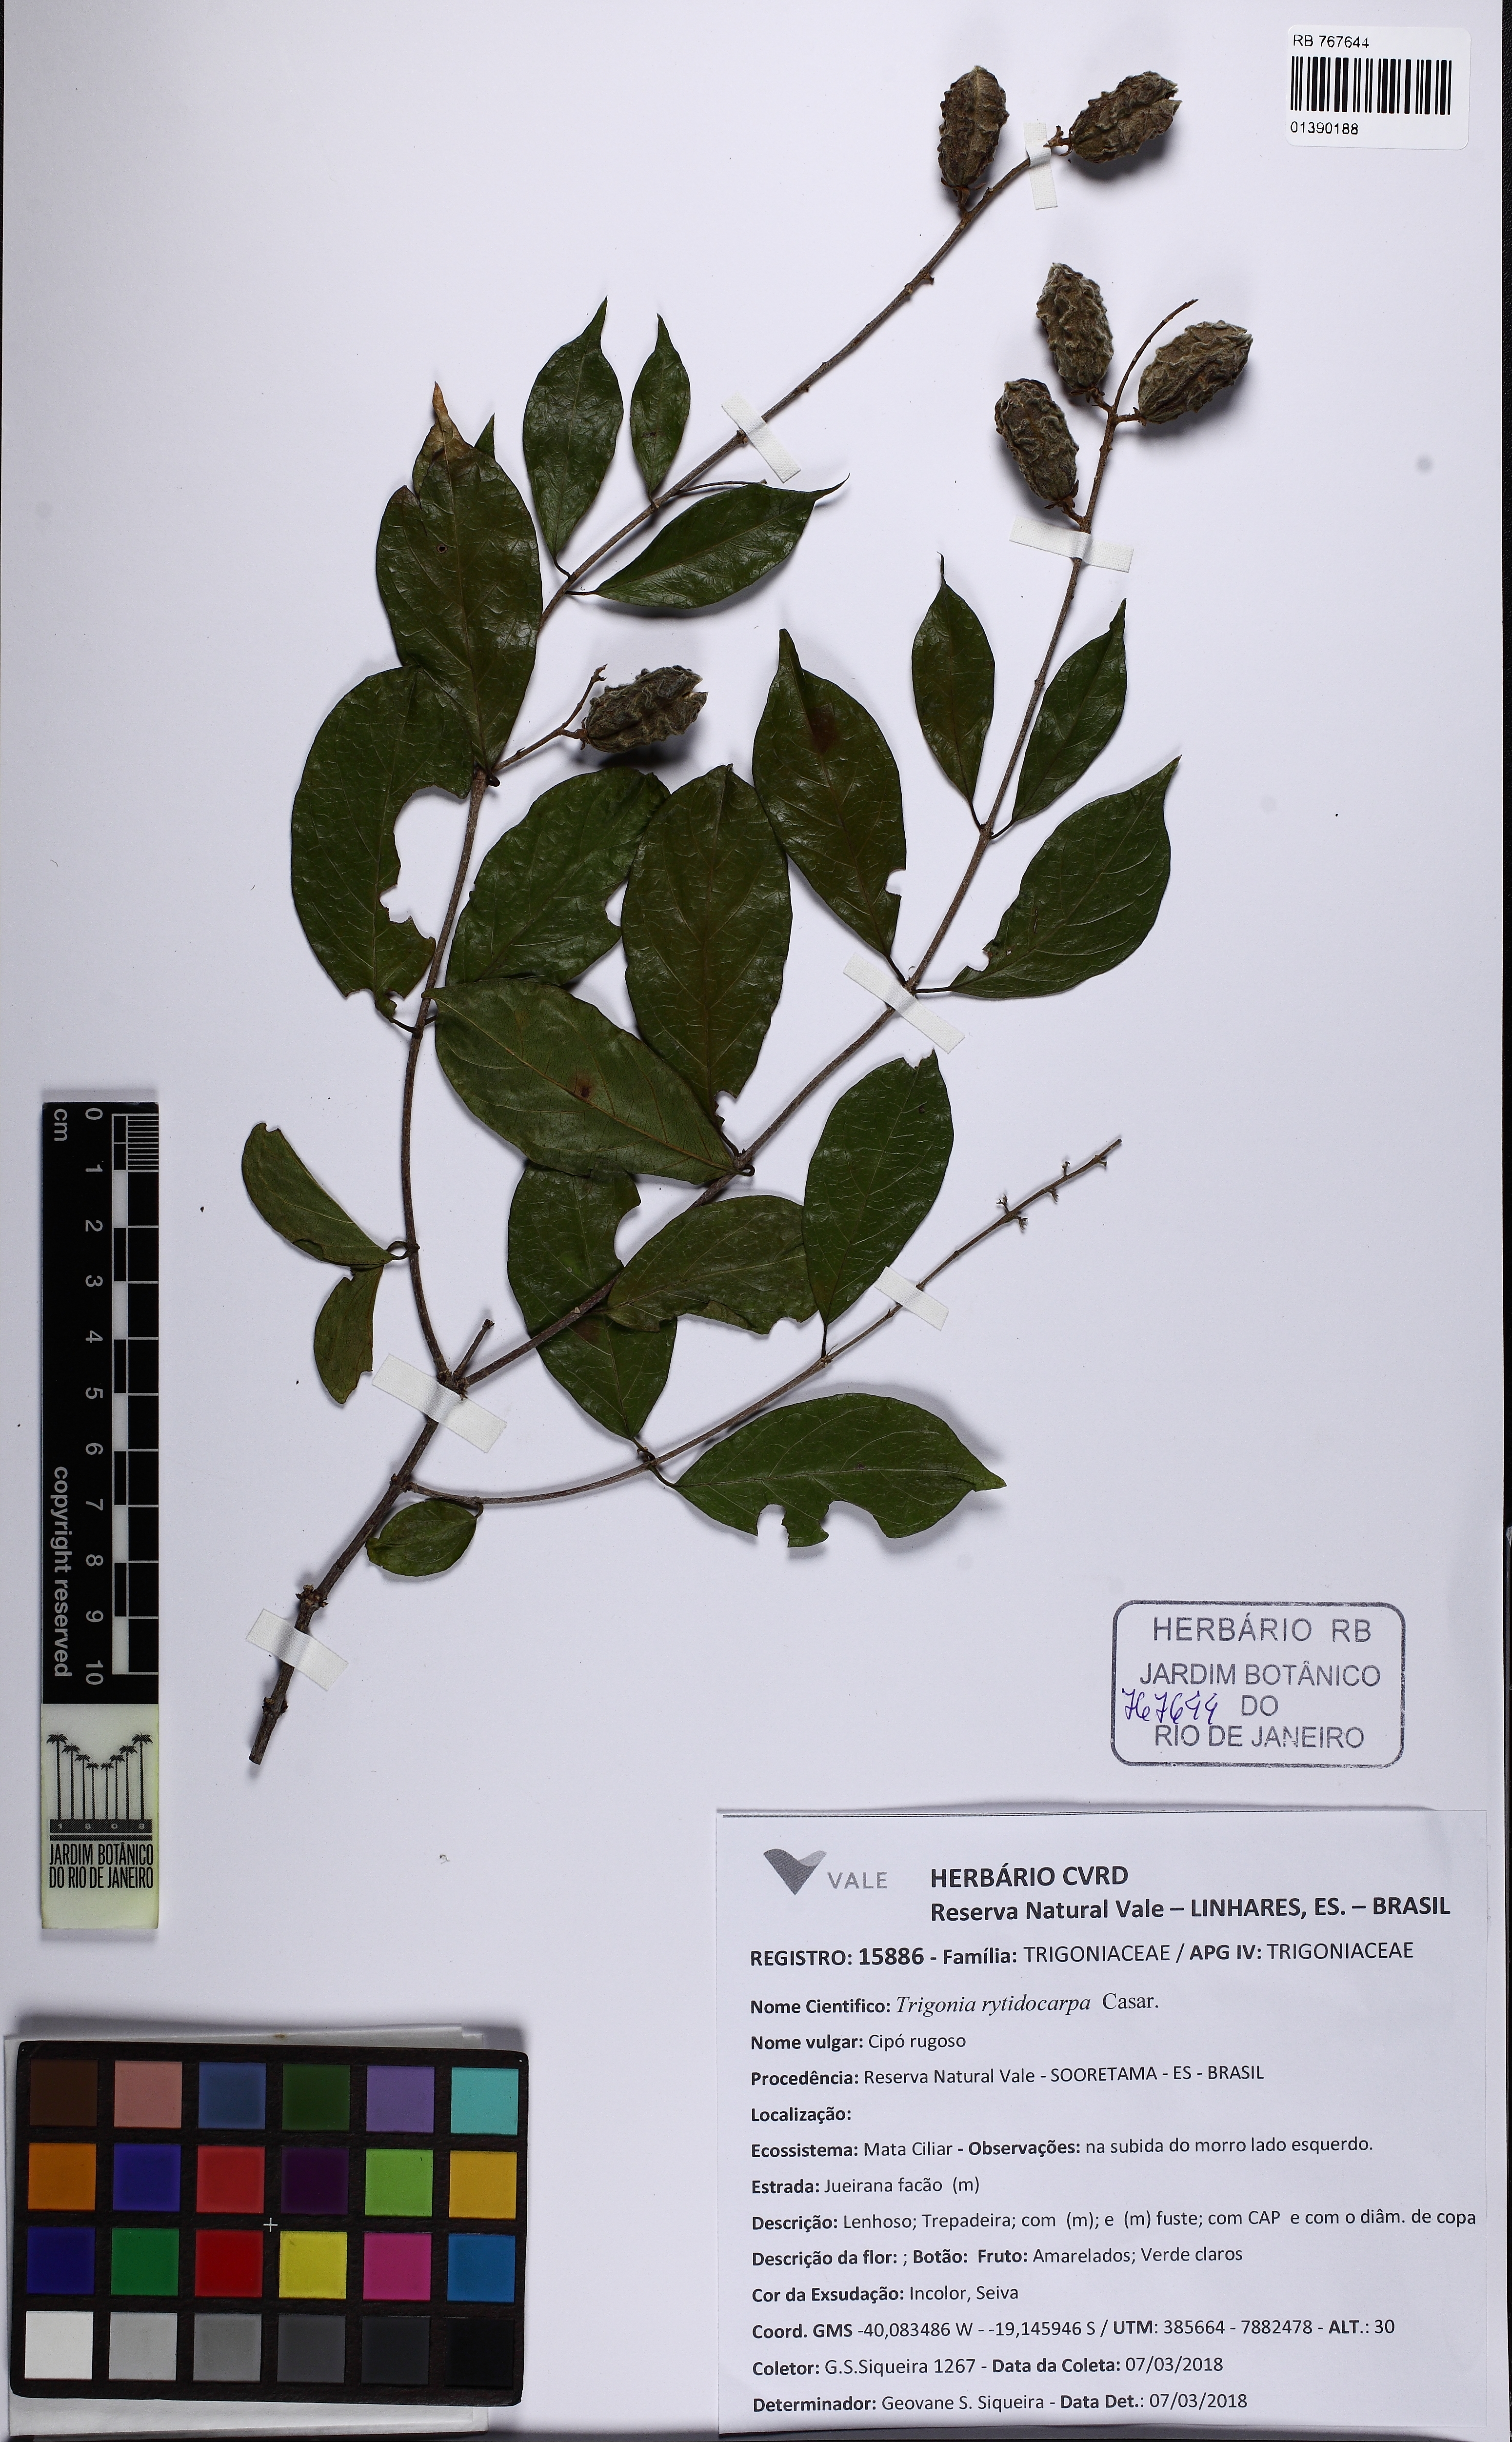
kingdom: Plantae
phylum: Tracheophyta
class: Magnoliopsida
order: Malpighiales
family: Trigoniaceae
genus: Trigonia
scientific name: Trigonia rytidocarpa
